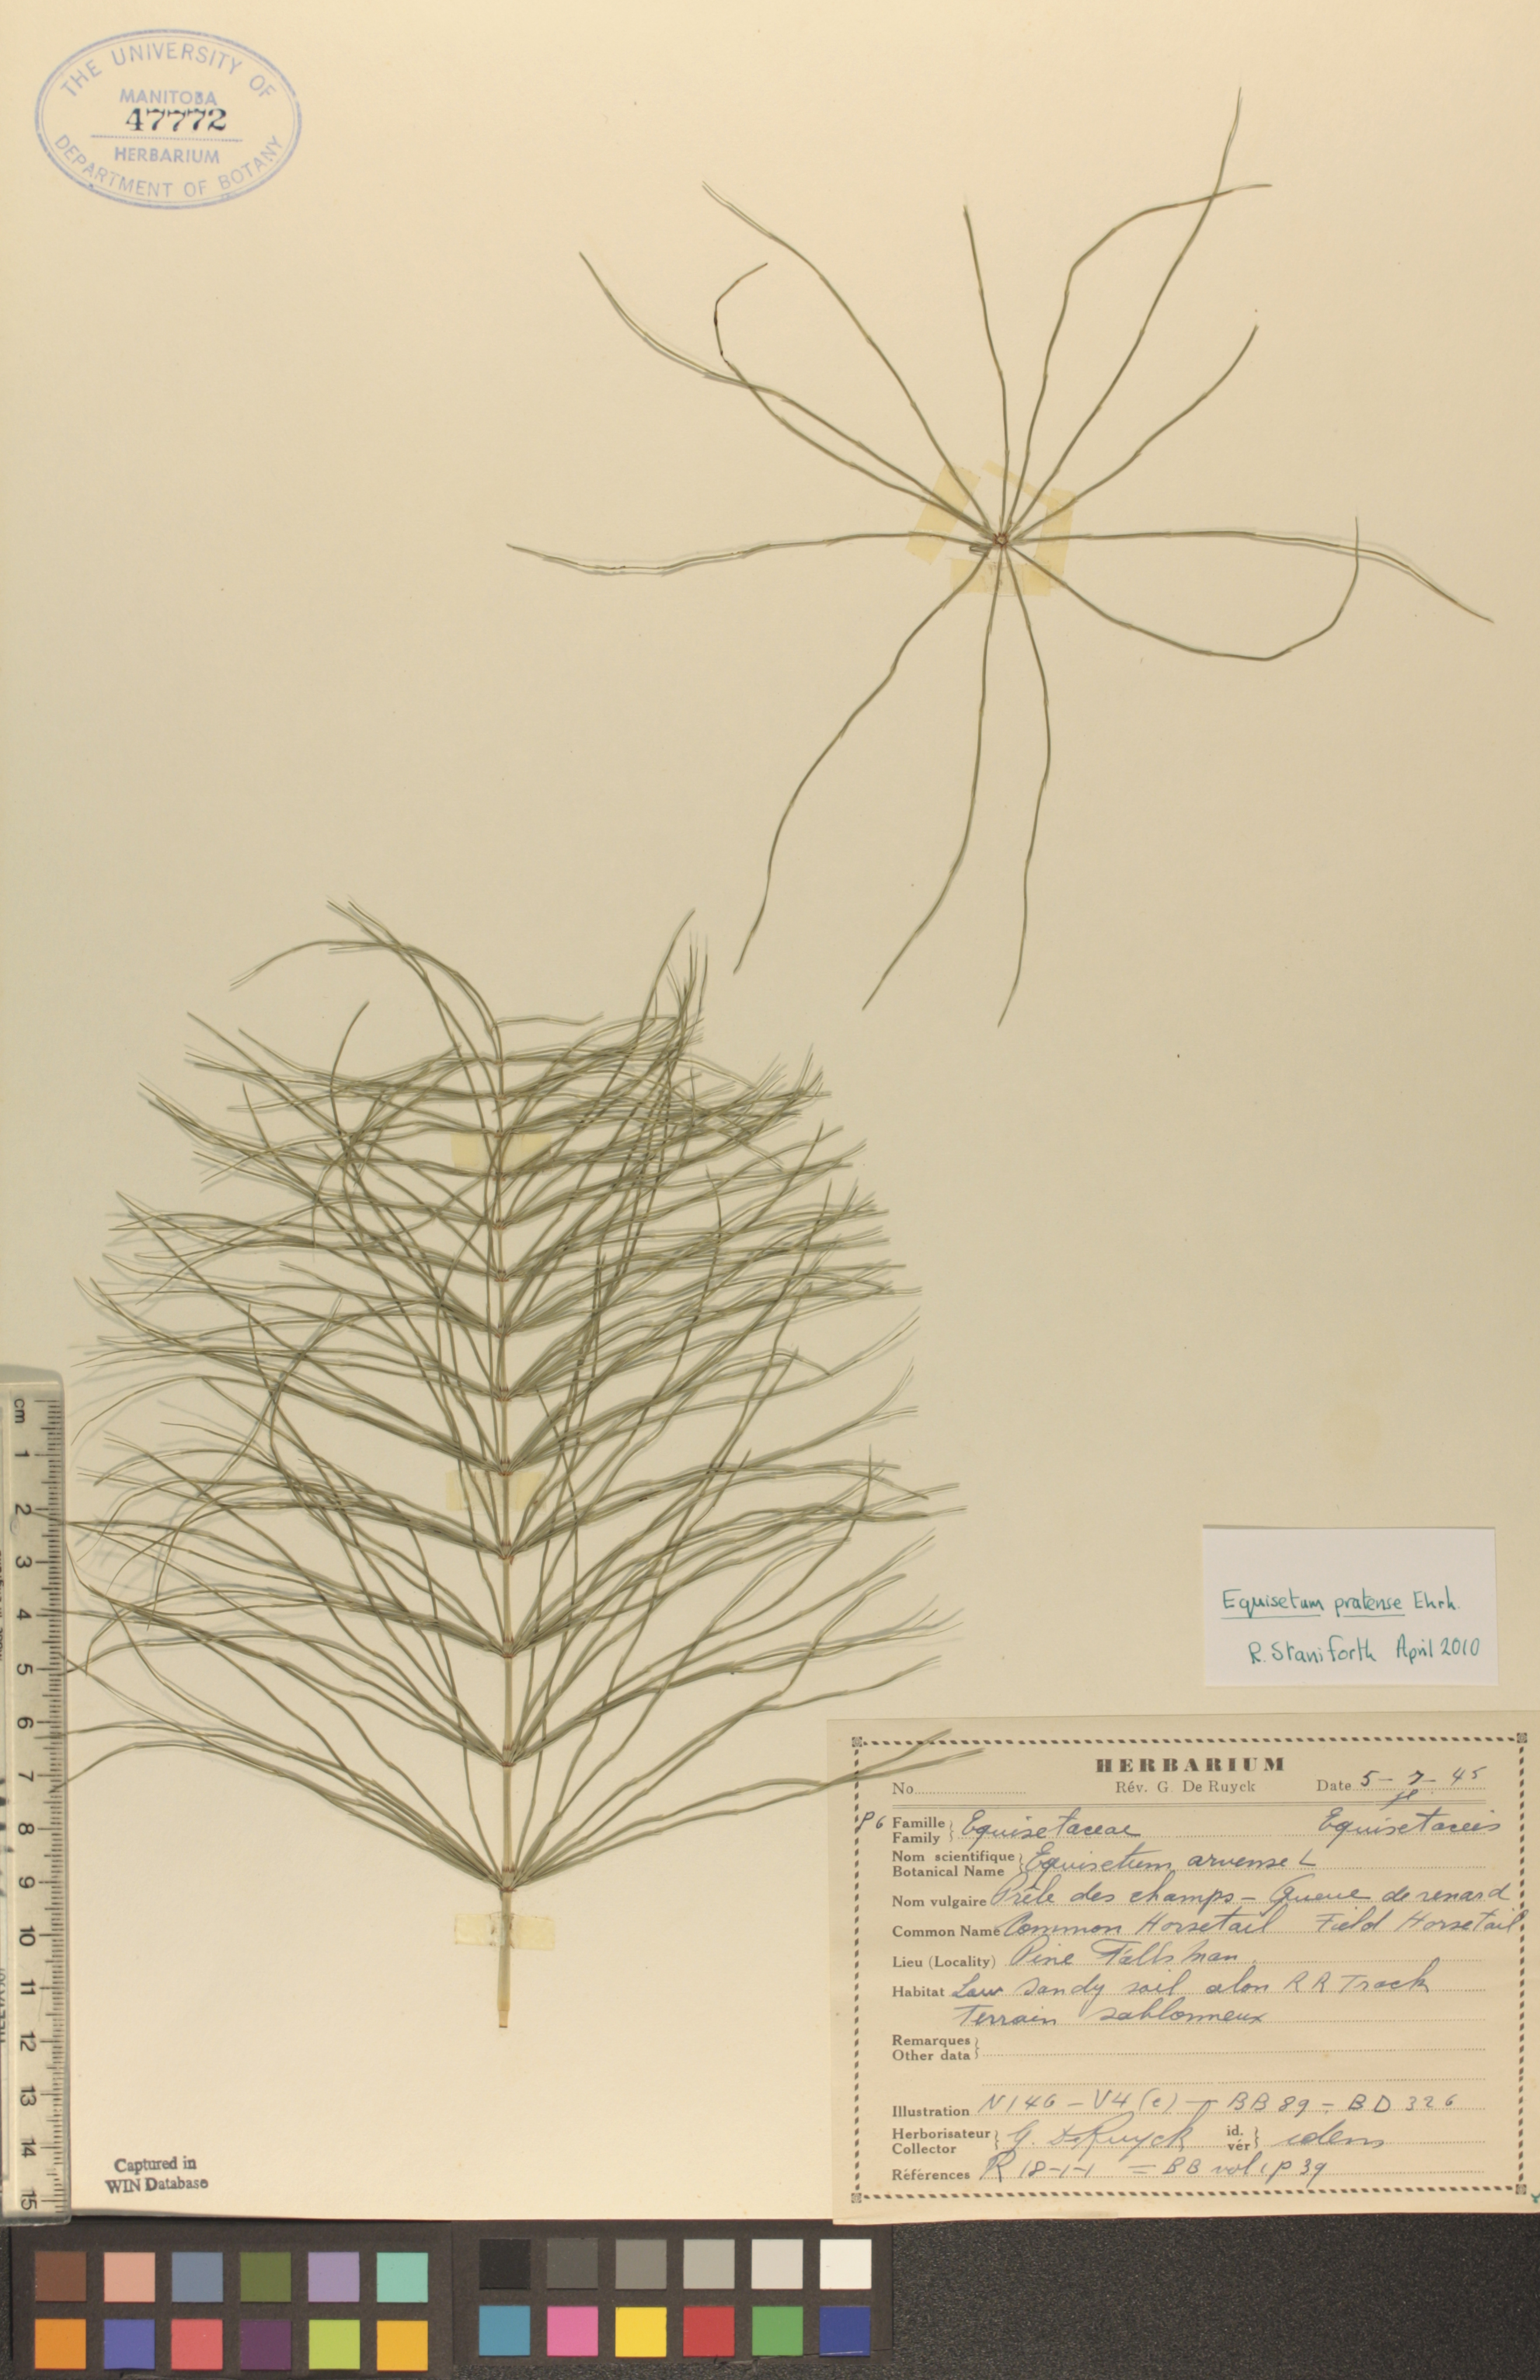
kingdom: Plantae
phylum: Tracheophyta
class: Polypodiopsida
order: Equisetales
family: Equisetaceae
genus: Equisetum
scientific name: Equisetum arvense
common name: Field horsetail
